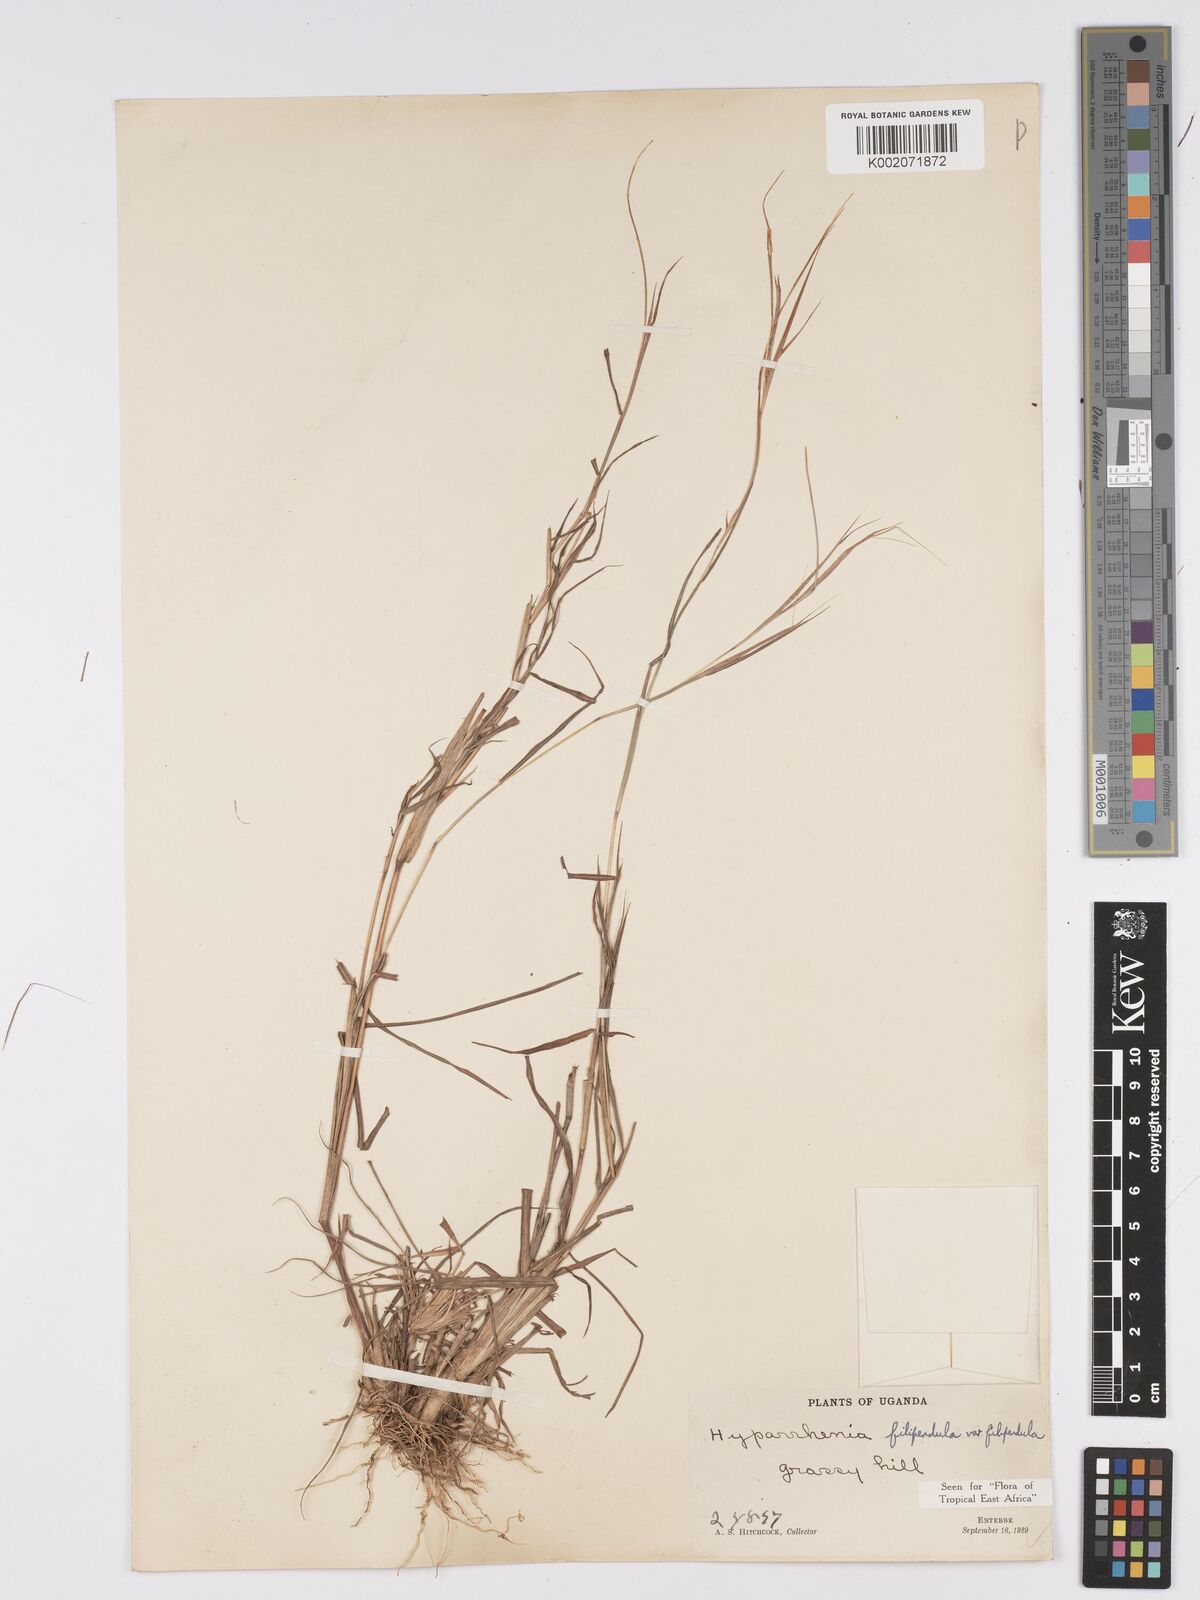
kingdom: Plantae
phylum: Tracheophyta
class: Liliopsida
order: Poales
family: Poaceae
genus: Hyparrhenia
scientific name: Hyparrhenia filipendula
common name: Tambookie grass
